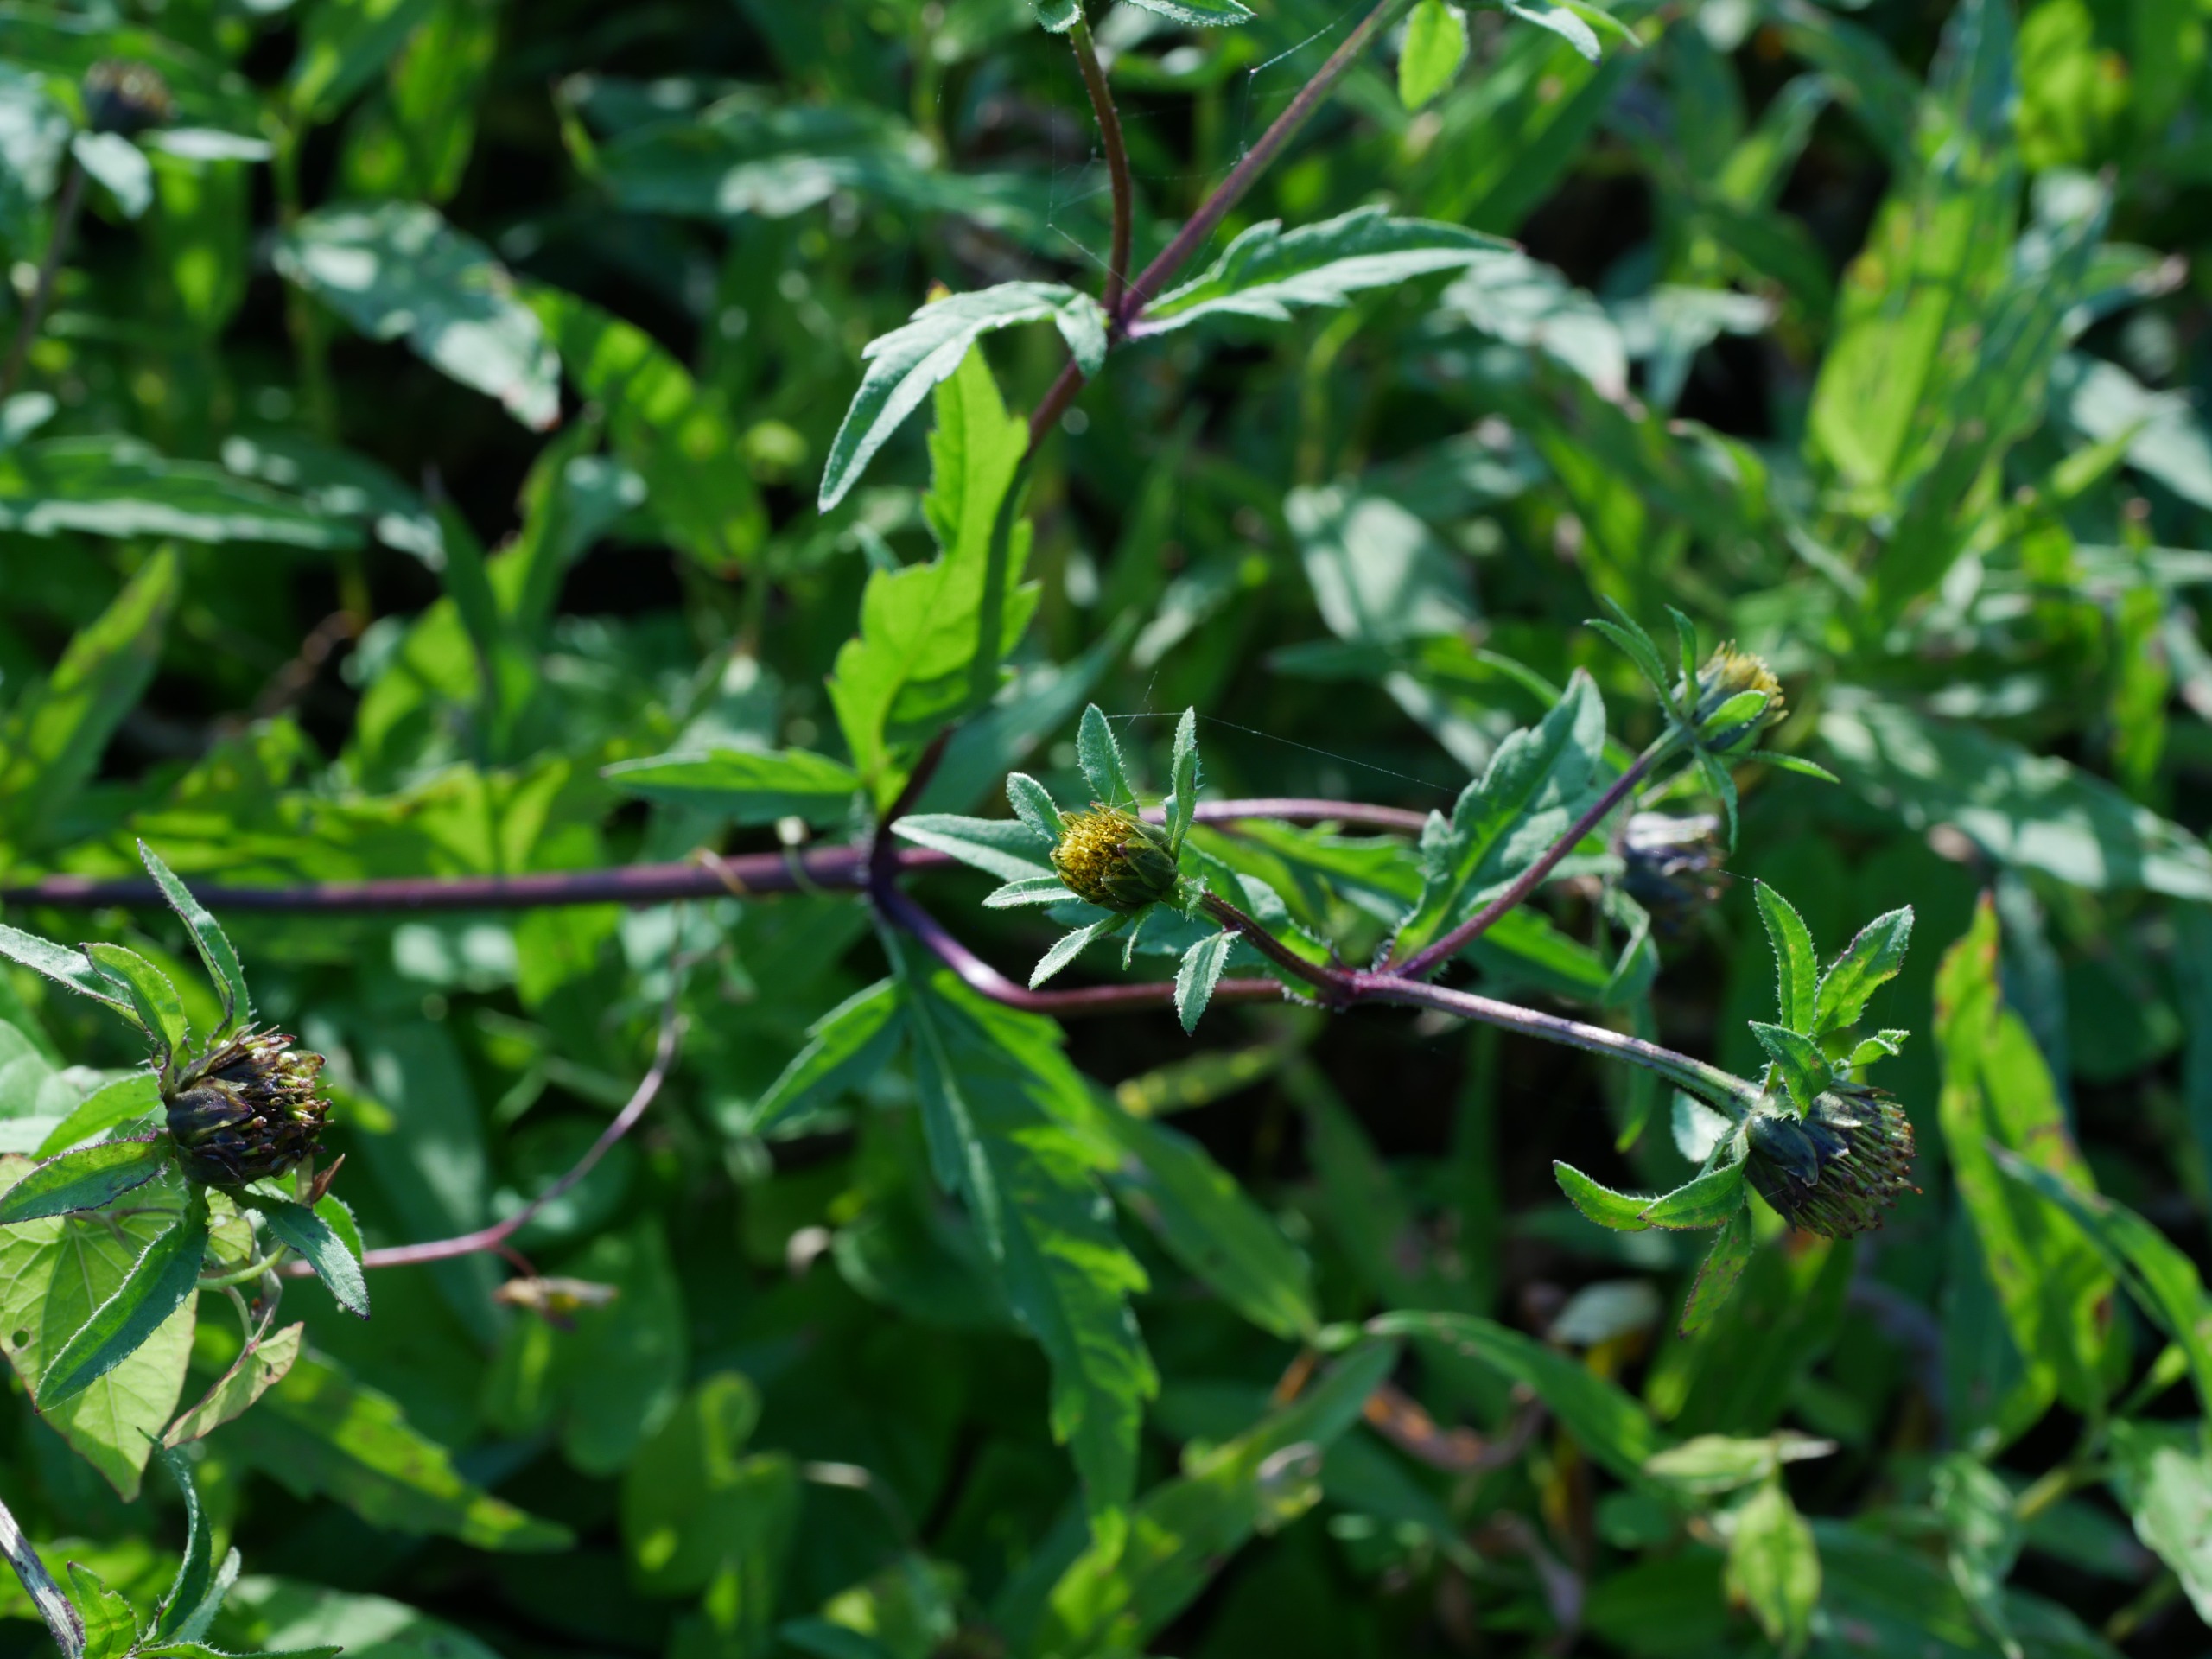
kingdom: Plantae
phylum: Tracheophyta
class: Magnoliopsida
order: Asterales
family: Asteraceae
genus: Bidens
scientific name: Bidens tripartita
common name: Fliget brøndsel
